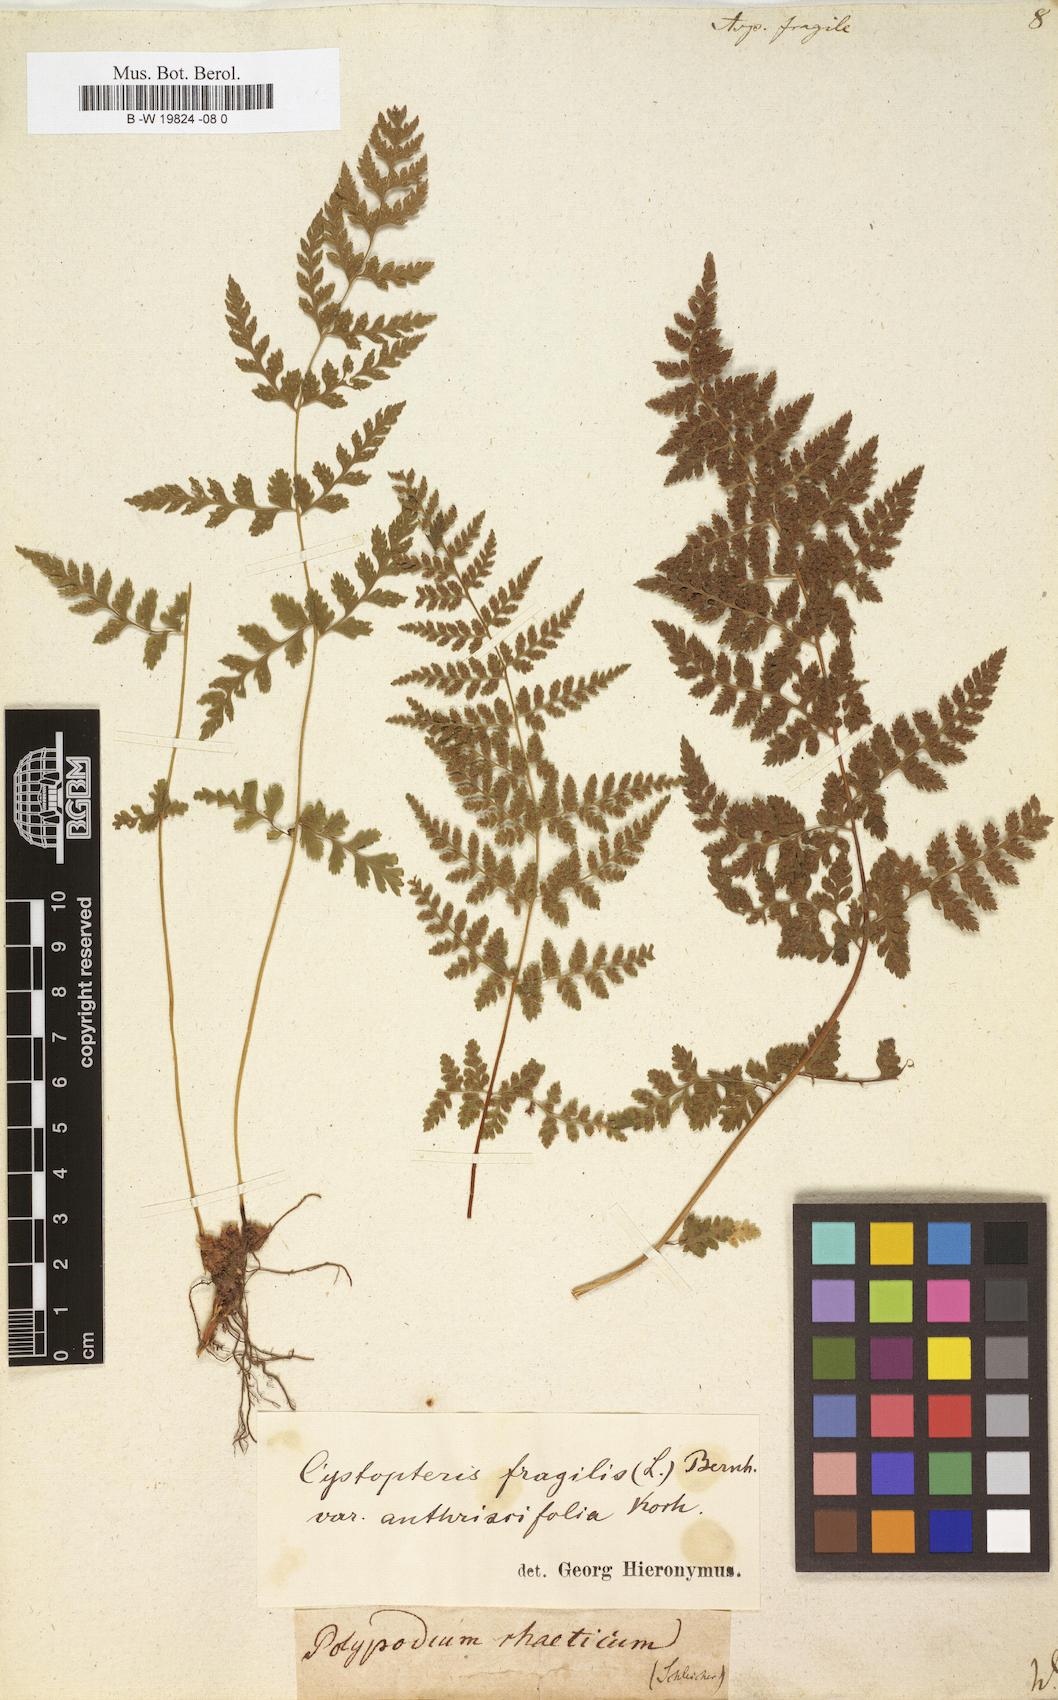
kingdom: Plantae
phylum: Tracheophyta
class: Polypodiopsida
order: Polypodiales
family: Cystopteridaceae
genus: Cystopteris
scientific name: Cystopteris fragilis
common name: Brittle bladder fern
